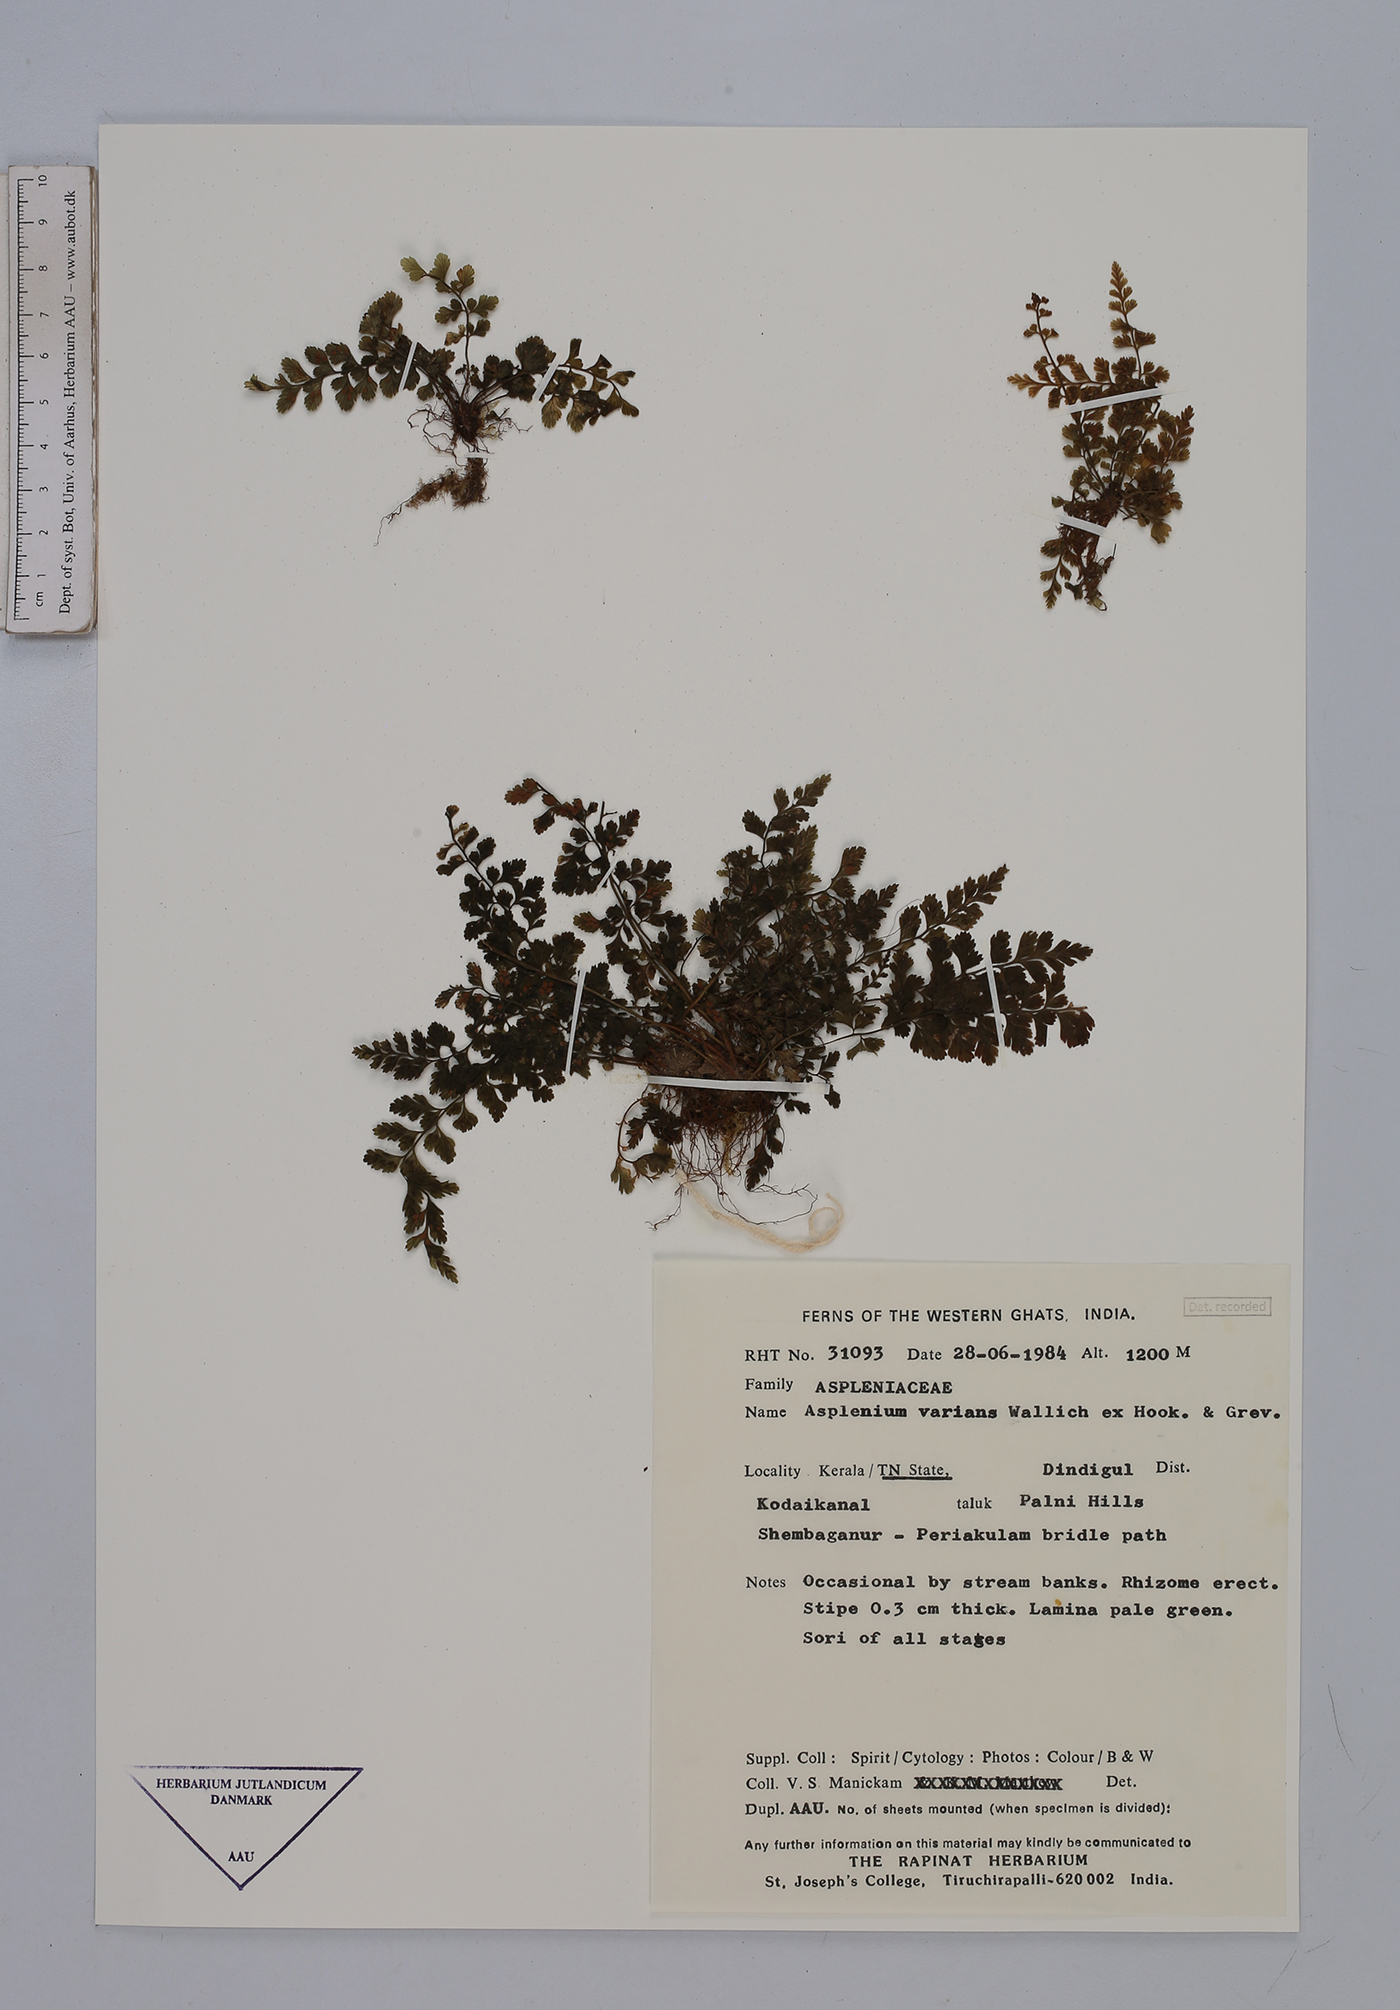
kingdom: Plantae
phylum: Tracheophyta
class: Polypodiopsida
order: Polypodiales
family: Aspleniaceae
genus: Asplenium
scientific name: Asplenium laciniatum
